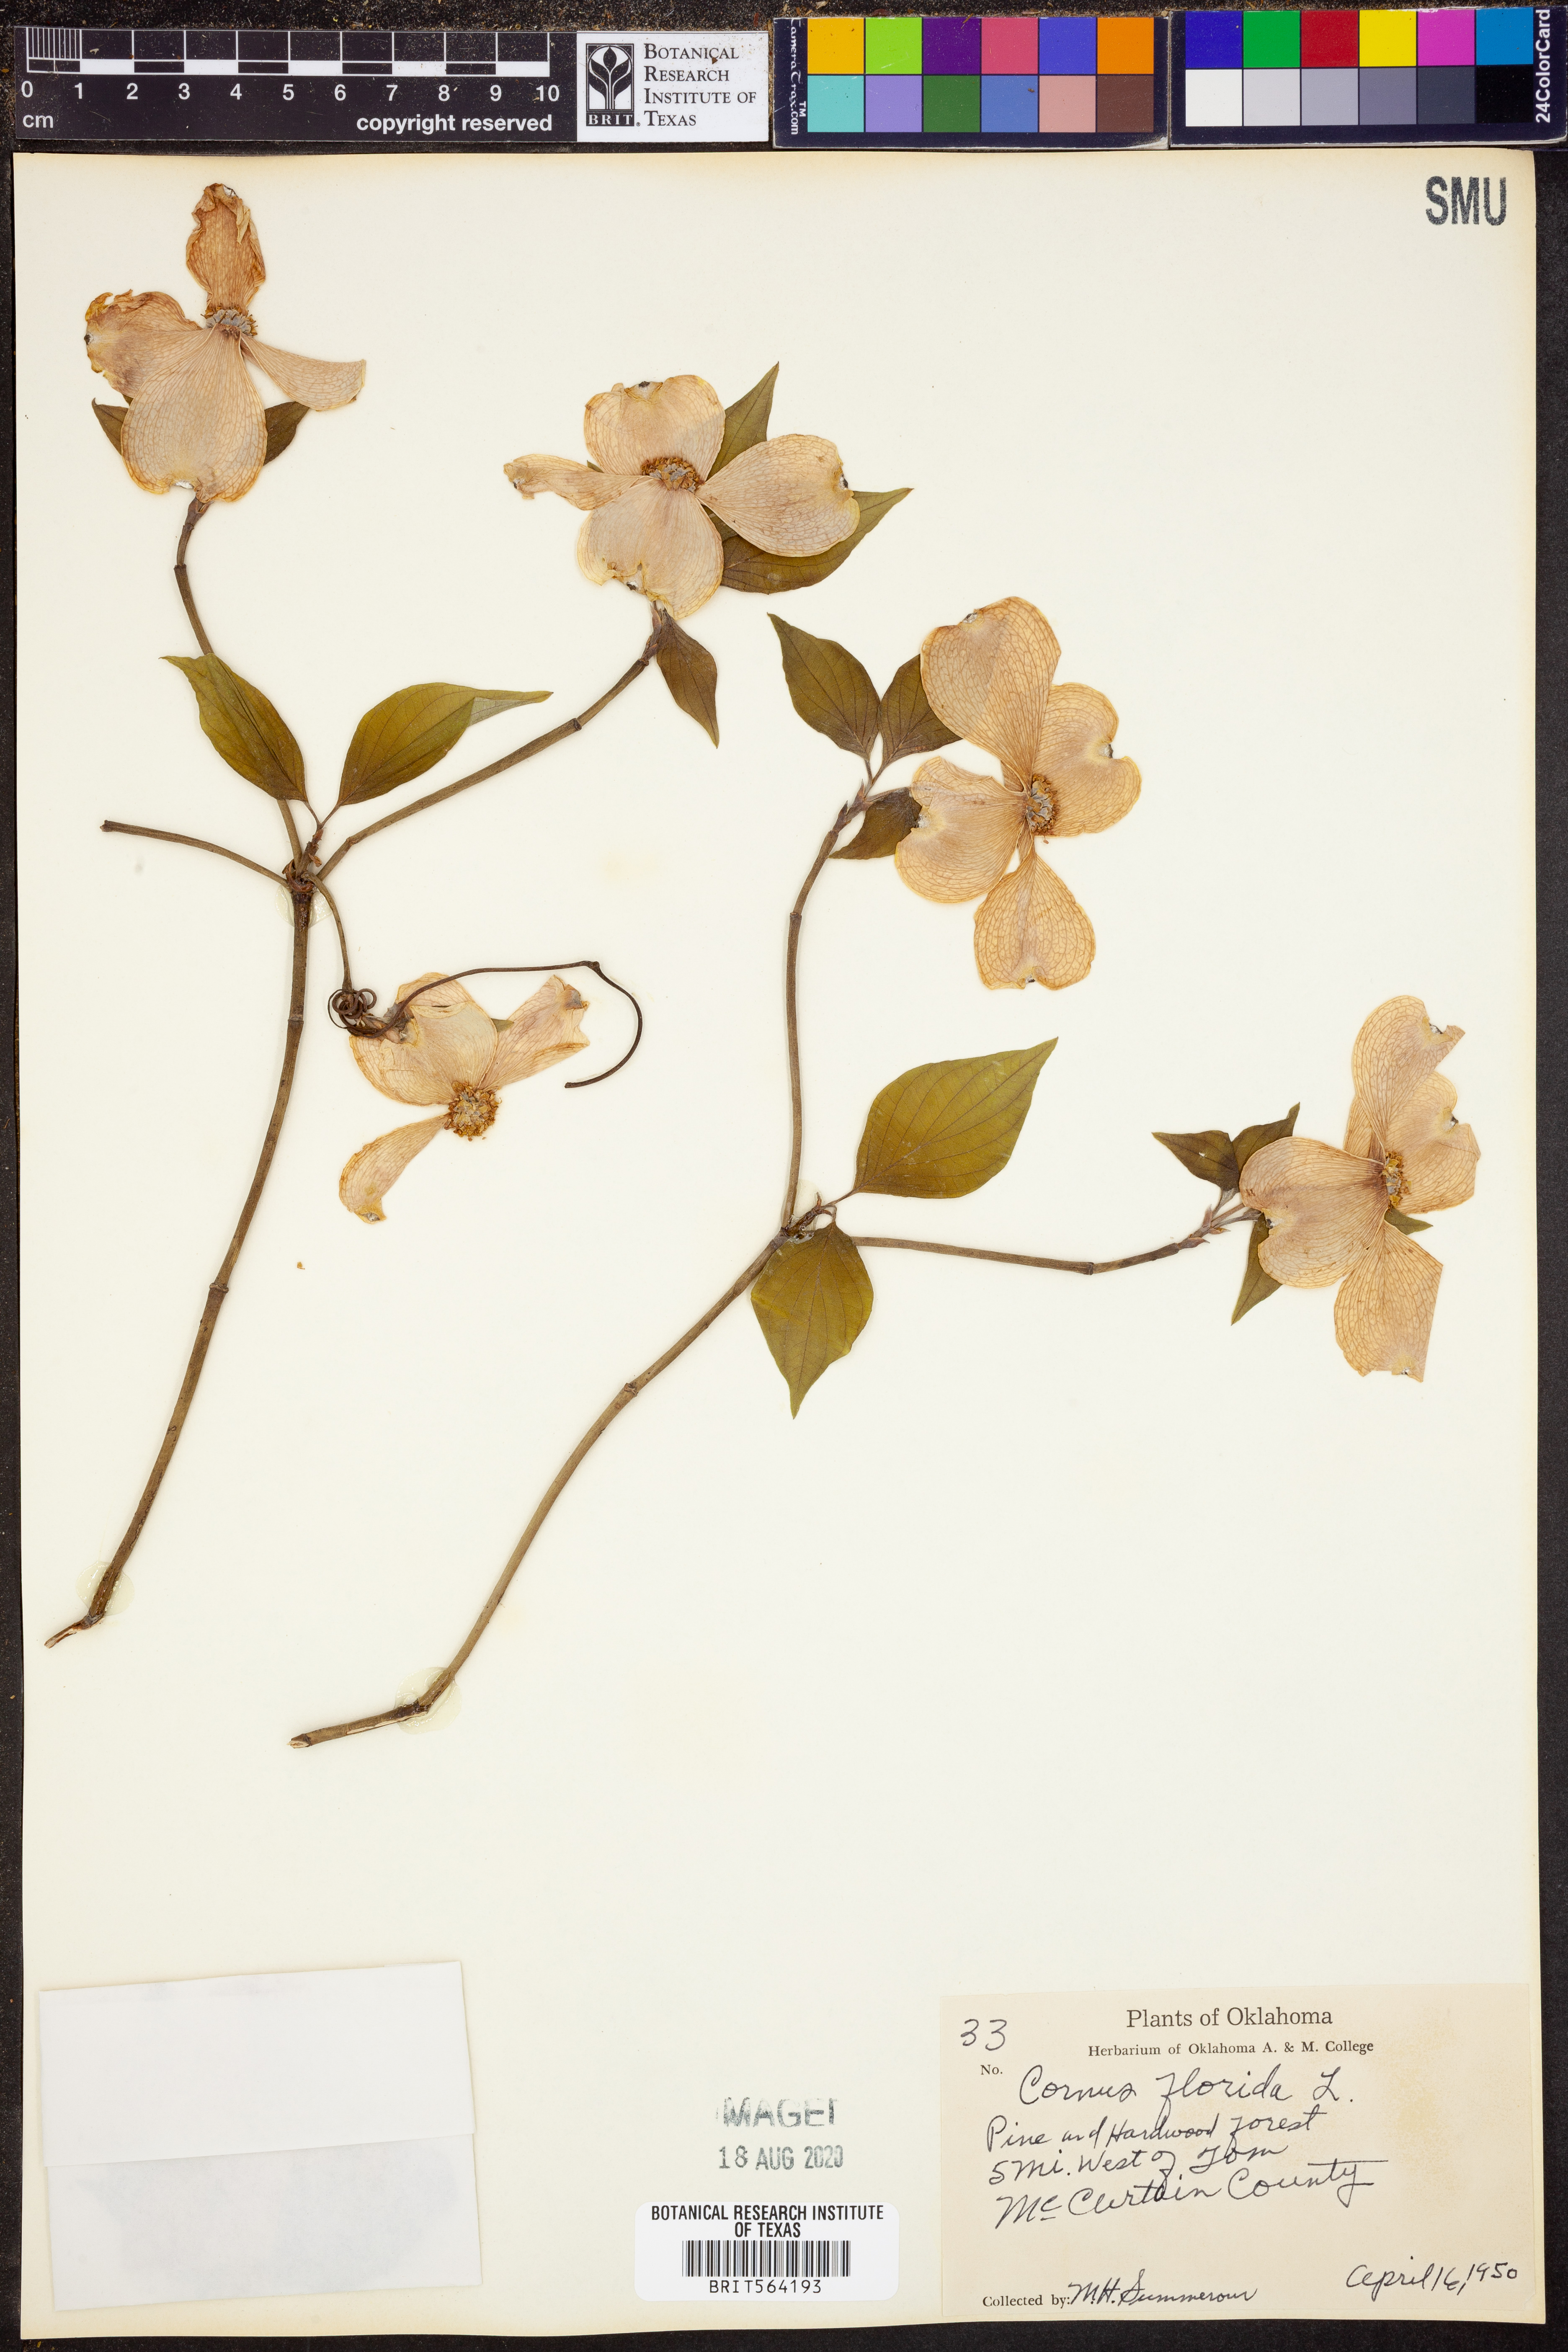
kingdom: Plantae
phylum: Tracheophyta
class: Magnoliopsida
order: Cornales
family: Cornaceae
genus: Cornus
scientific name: Cornus florida
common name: Flowering dogwood
